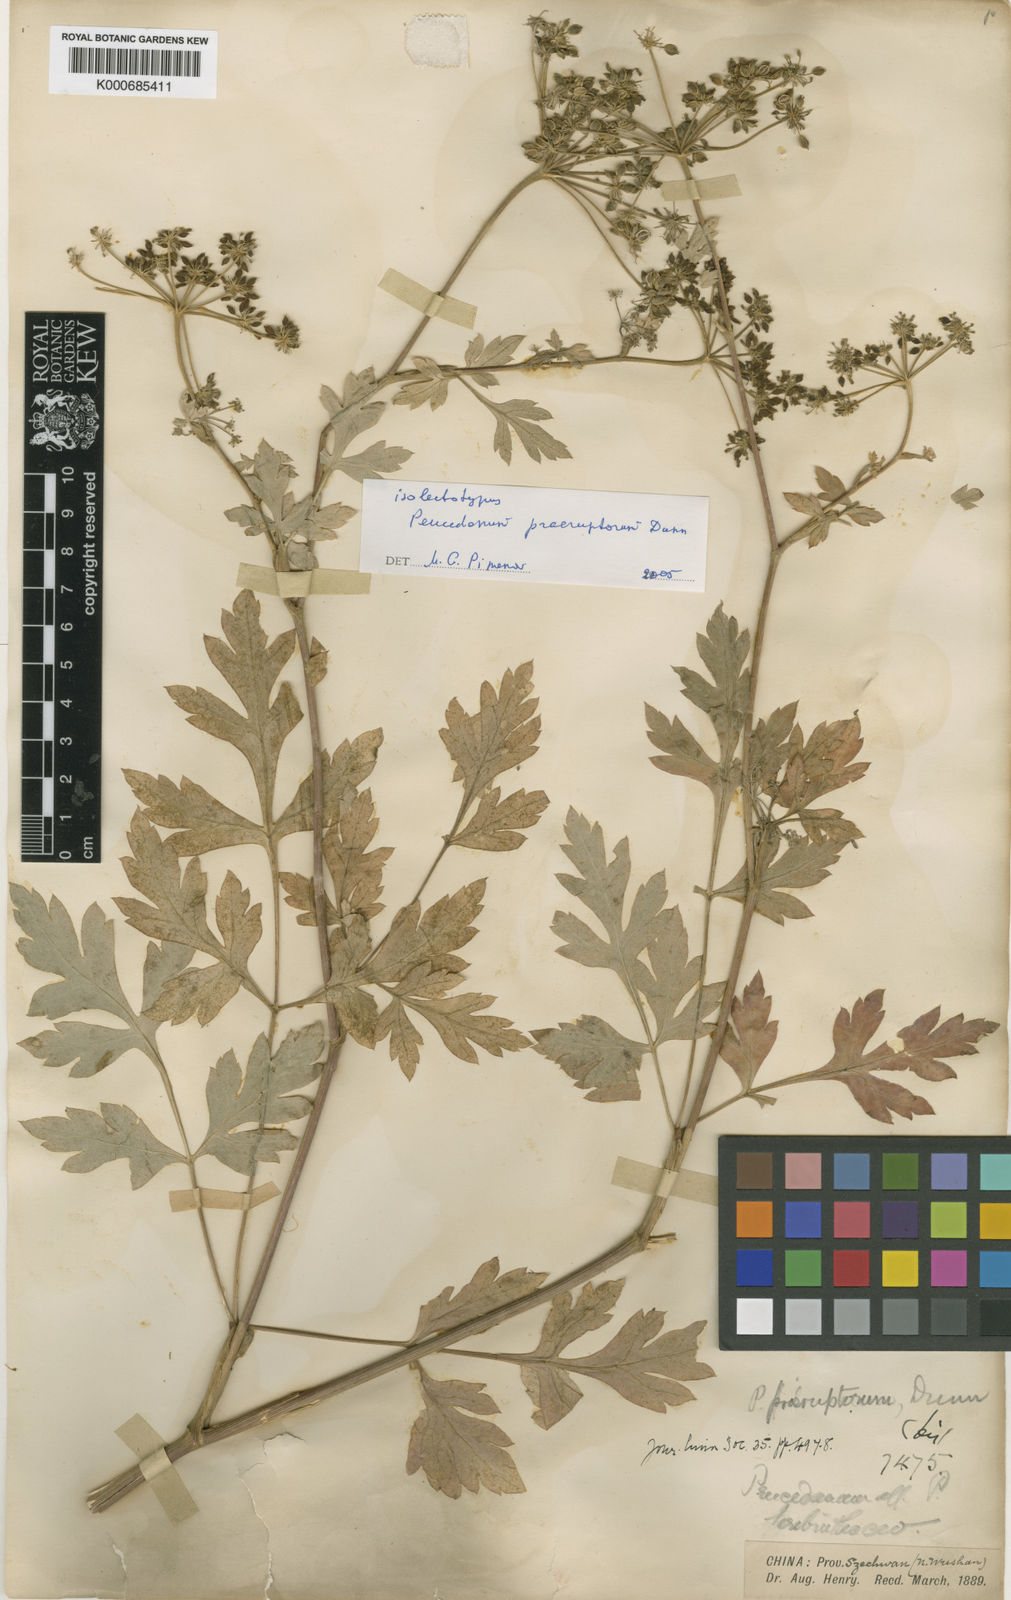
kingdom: Plantae
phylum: Tracheophyta
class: Magnoliopsida
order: Apiales
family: Apiaceae
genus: Kitagawia
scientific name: Kitagawia praeruptora
